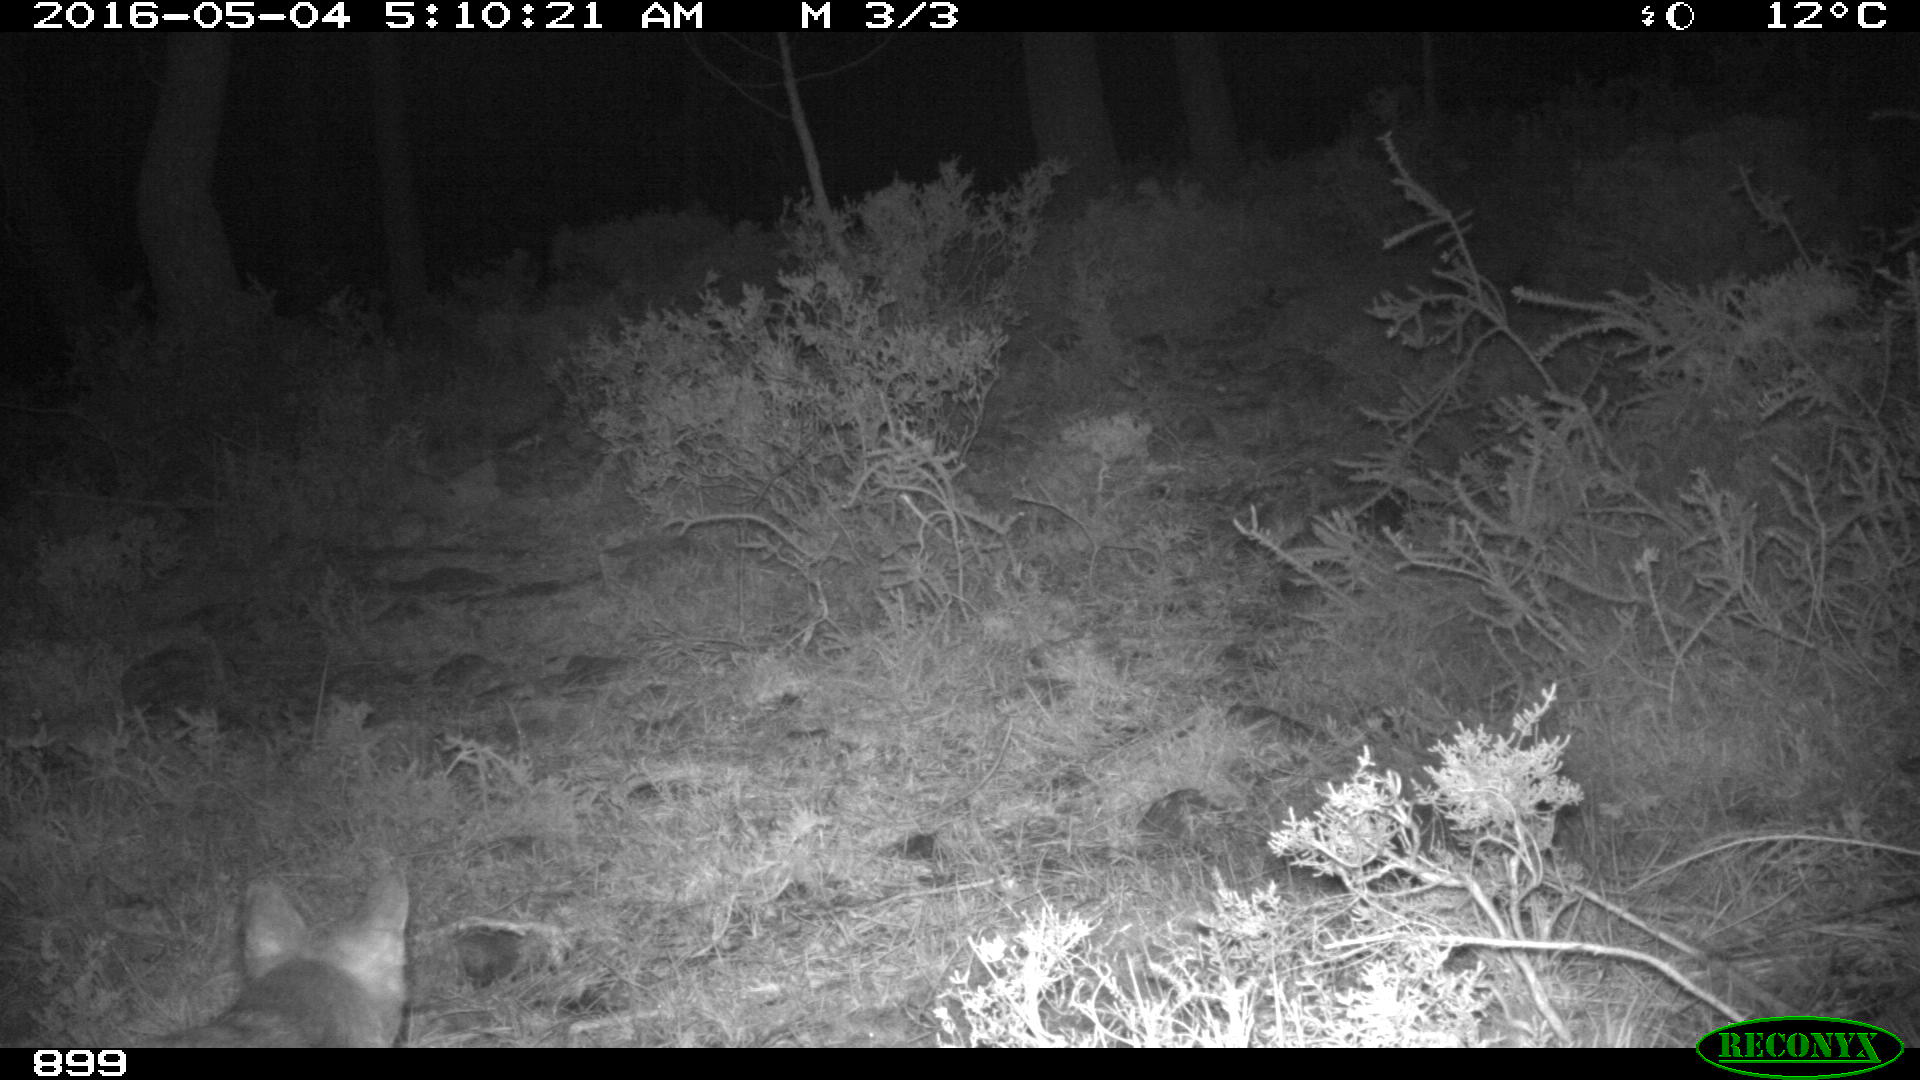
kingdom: Animalia
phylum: Chordata
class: Mammalia
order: Carnivora
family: Canidae
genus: Vulpes
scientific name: Vulpes vulpes
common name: Red fox
